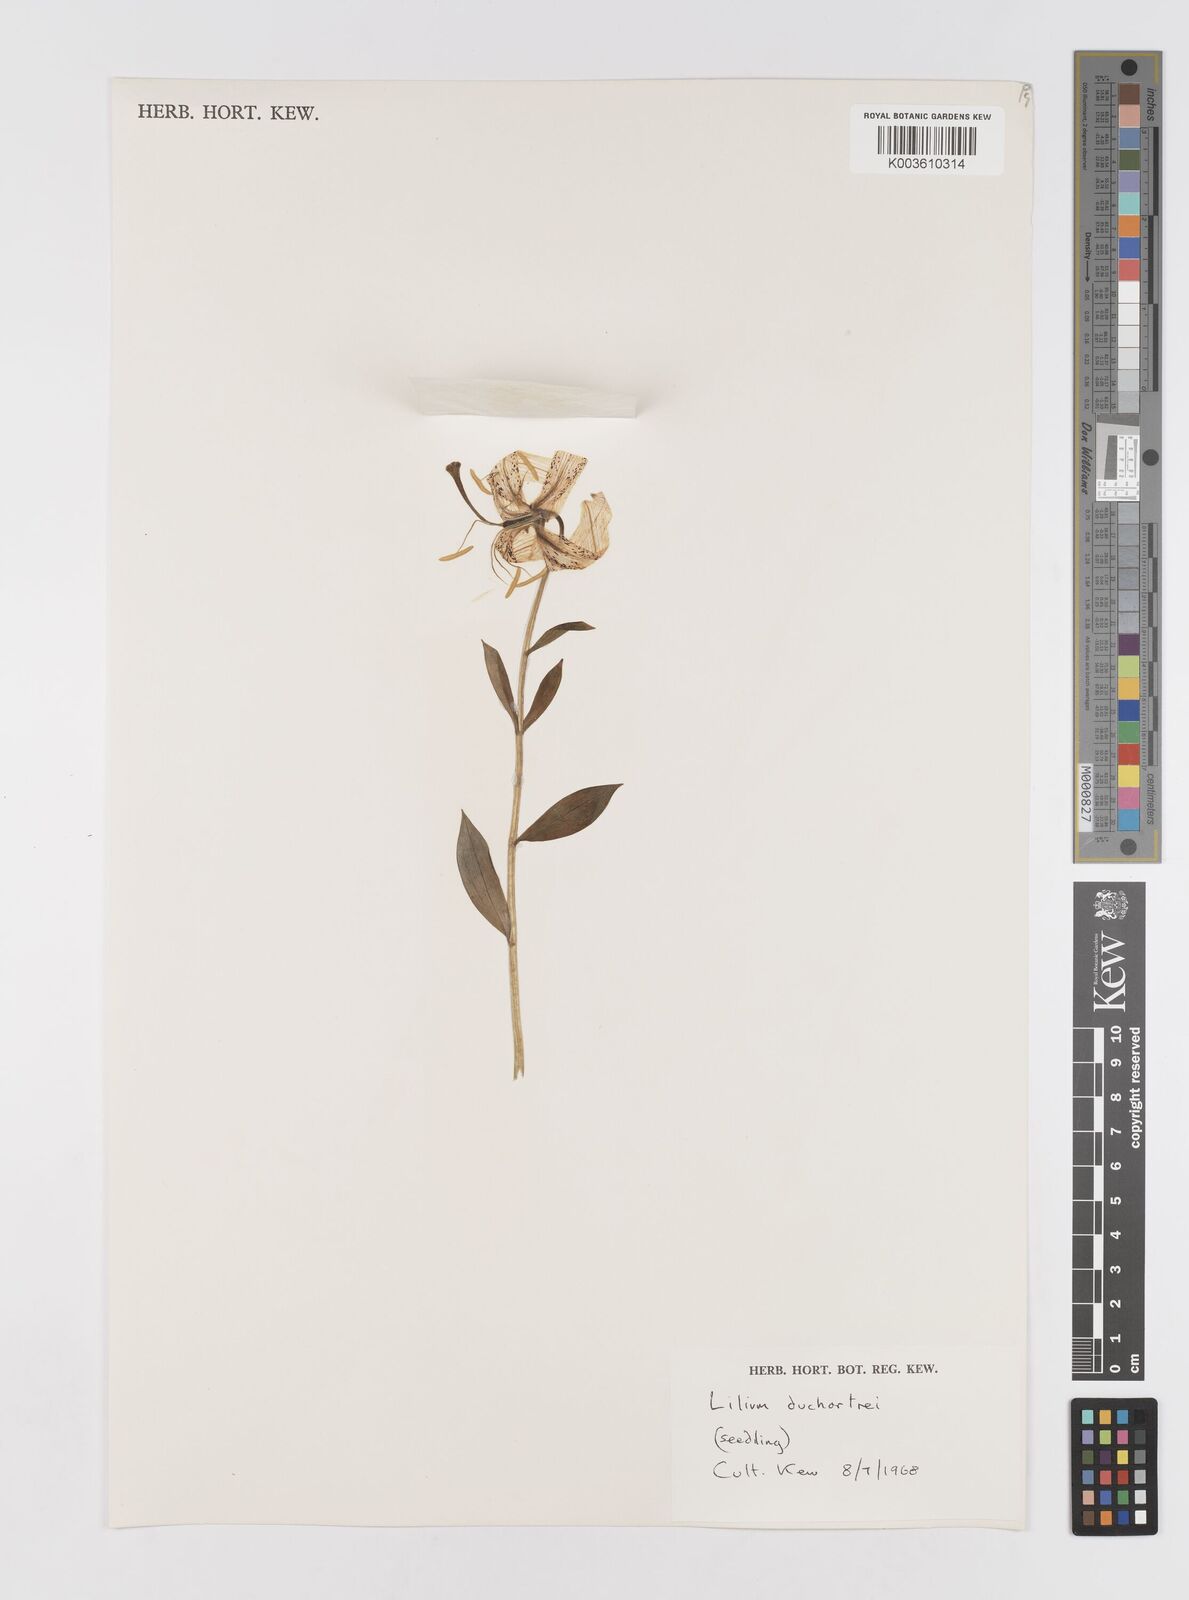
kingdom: Plantae
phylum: Tracheophyta
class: Liliopsida
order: Liliales
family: Liliaceae
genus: Lilium
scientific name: Lilium duchartrei
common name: Duchartre lily
